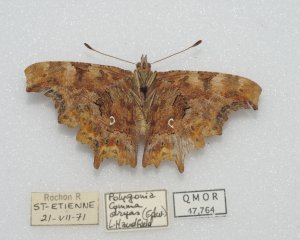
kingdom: Animalia
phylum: Arthropoda
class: Insecta
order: Lepidoptera
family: Nymphalidae
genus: Polygonia
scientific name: Polygonia comma
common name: Eastern Comma
